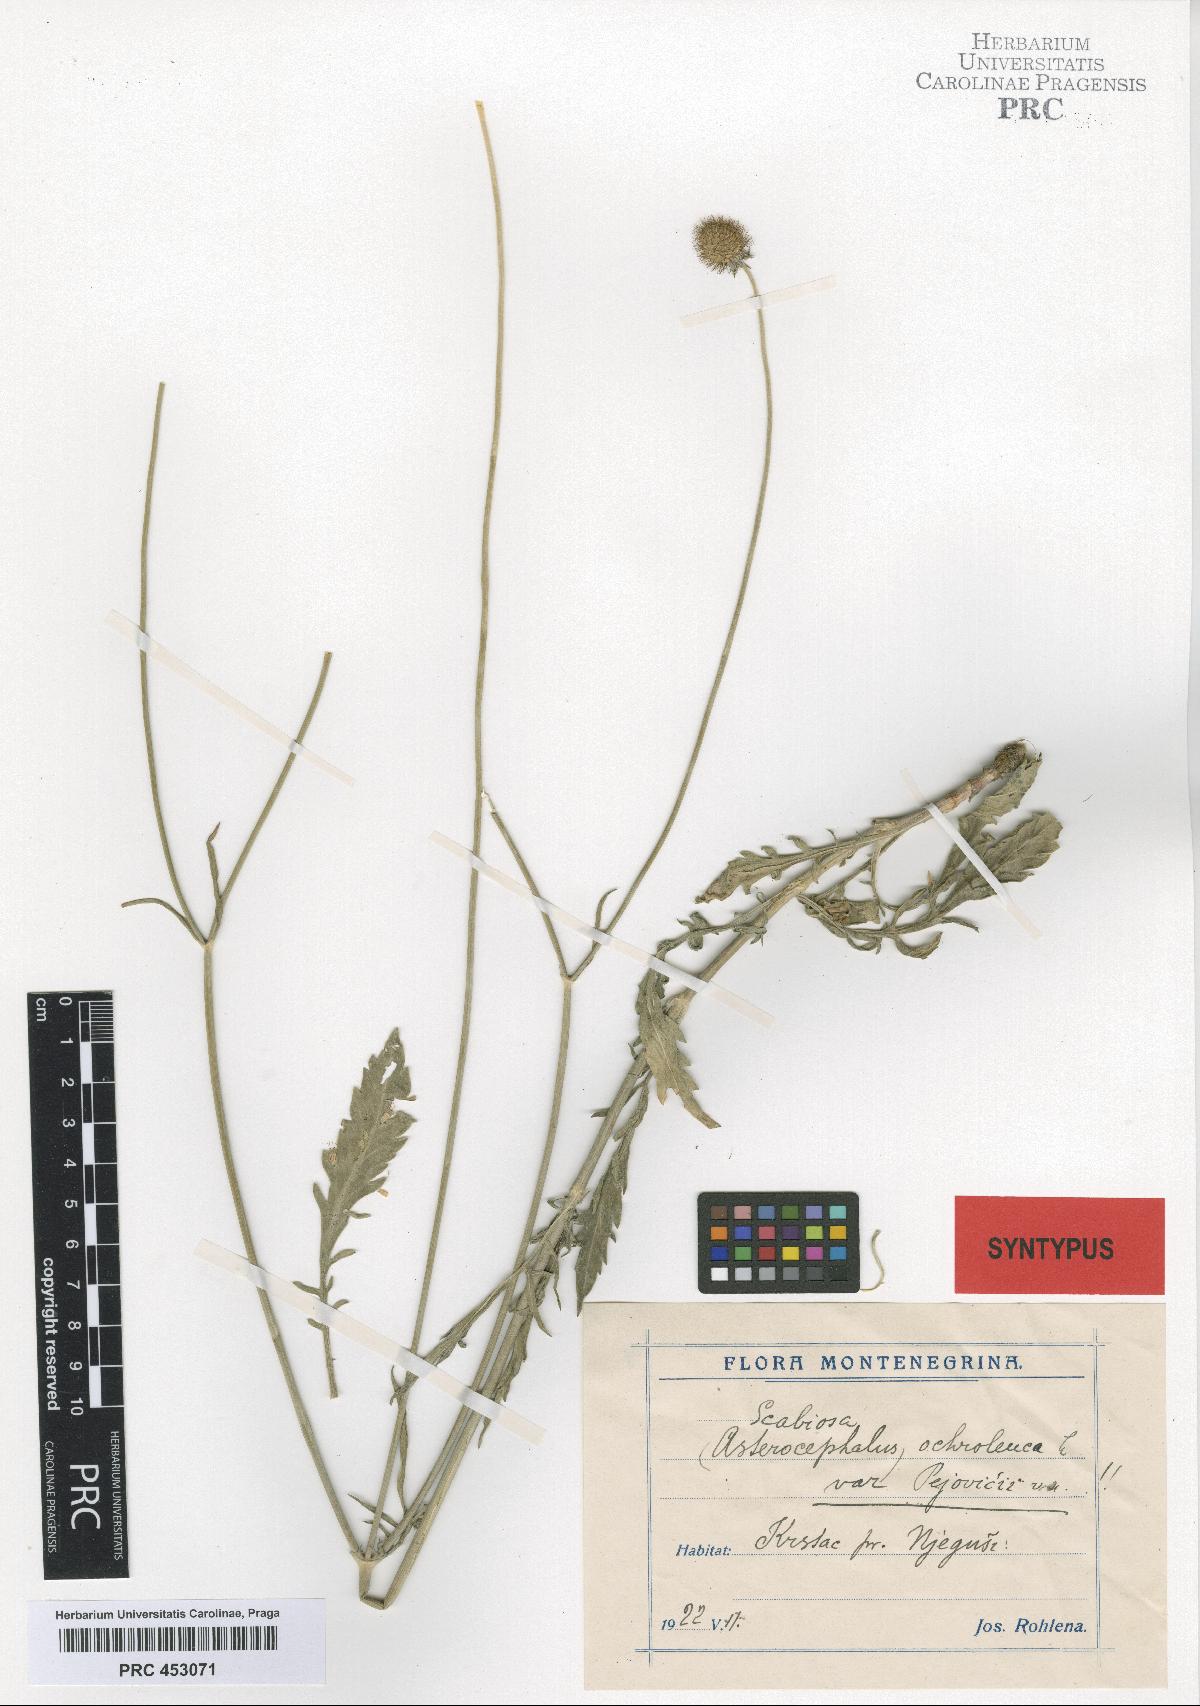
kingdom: Plantae
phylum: Tracheophyta
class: Magnoliopsida
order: Dipsacales
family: Caprifoliaceae
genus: Scabiosa
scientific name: Scabiosa ochroleuca
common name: Cream pincushions
